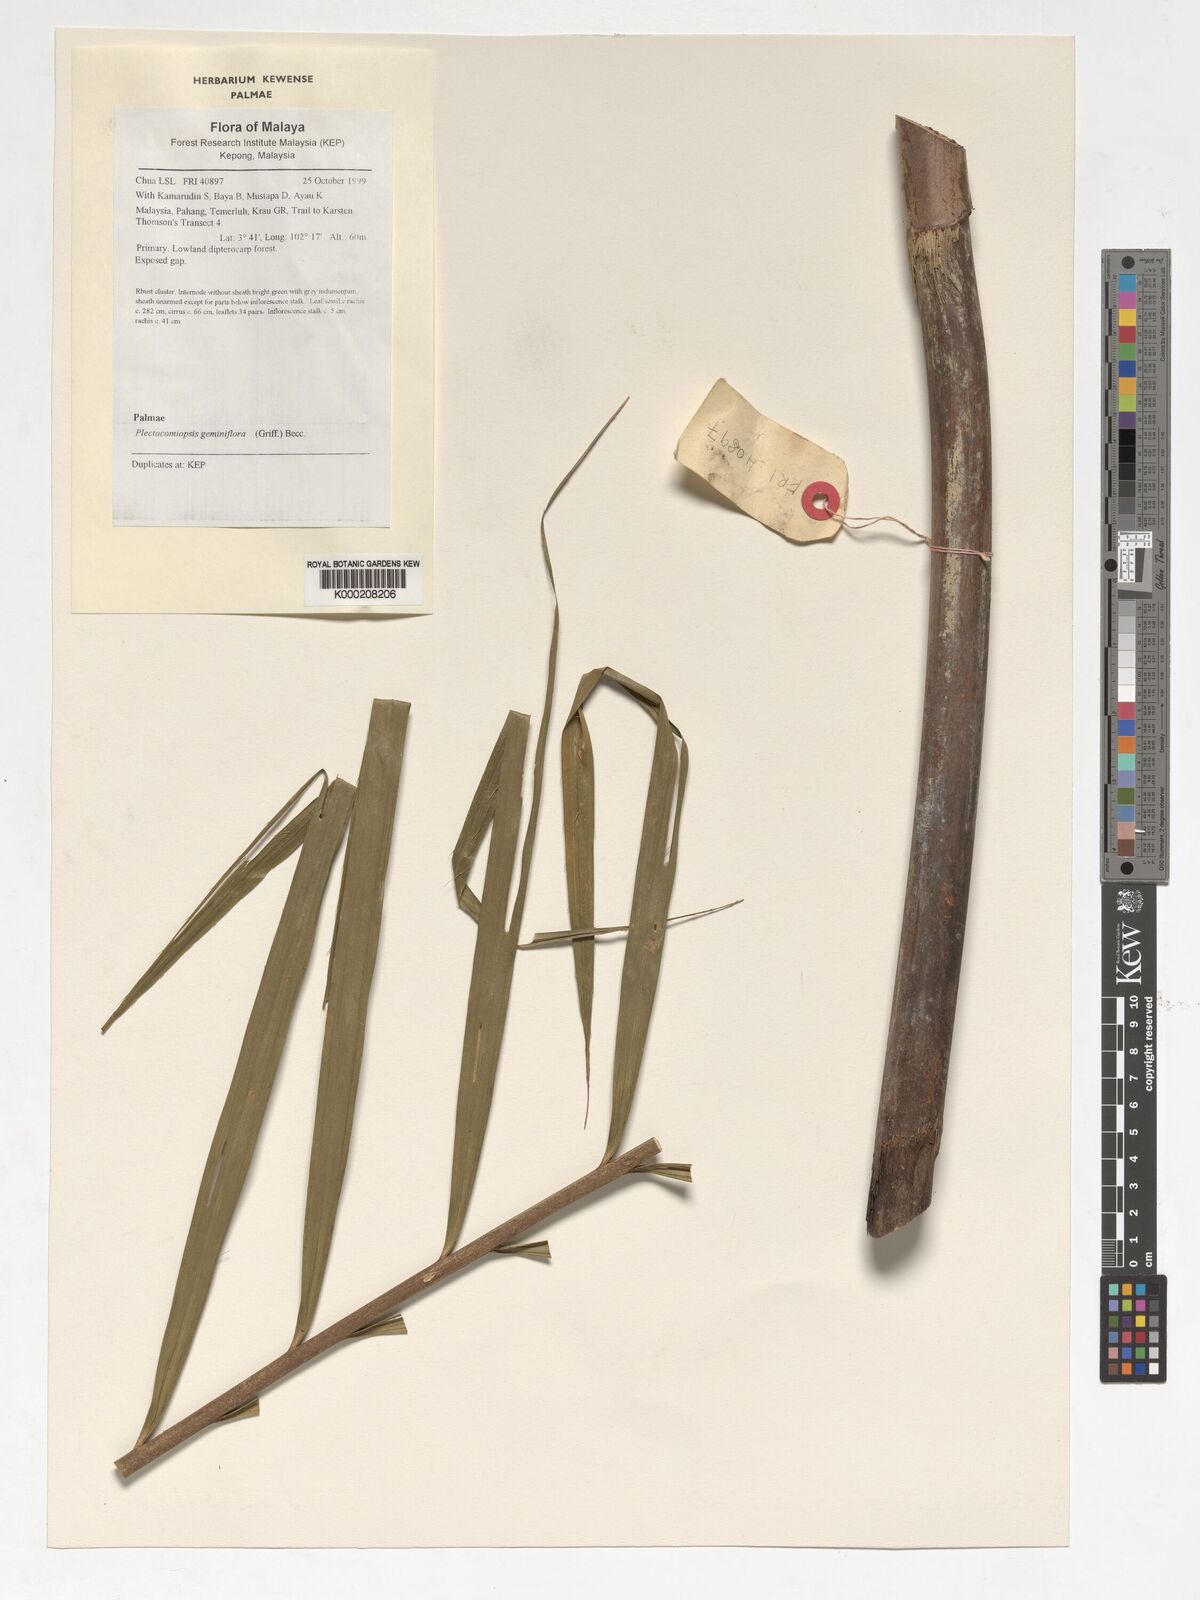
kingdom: Plantae
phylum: Tracheophyta
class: Liliopsida
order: Arecales
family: Arecaceae
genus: Plectocomiopsis
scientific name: Plectocomiopsis geminiflora
